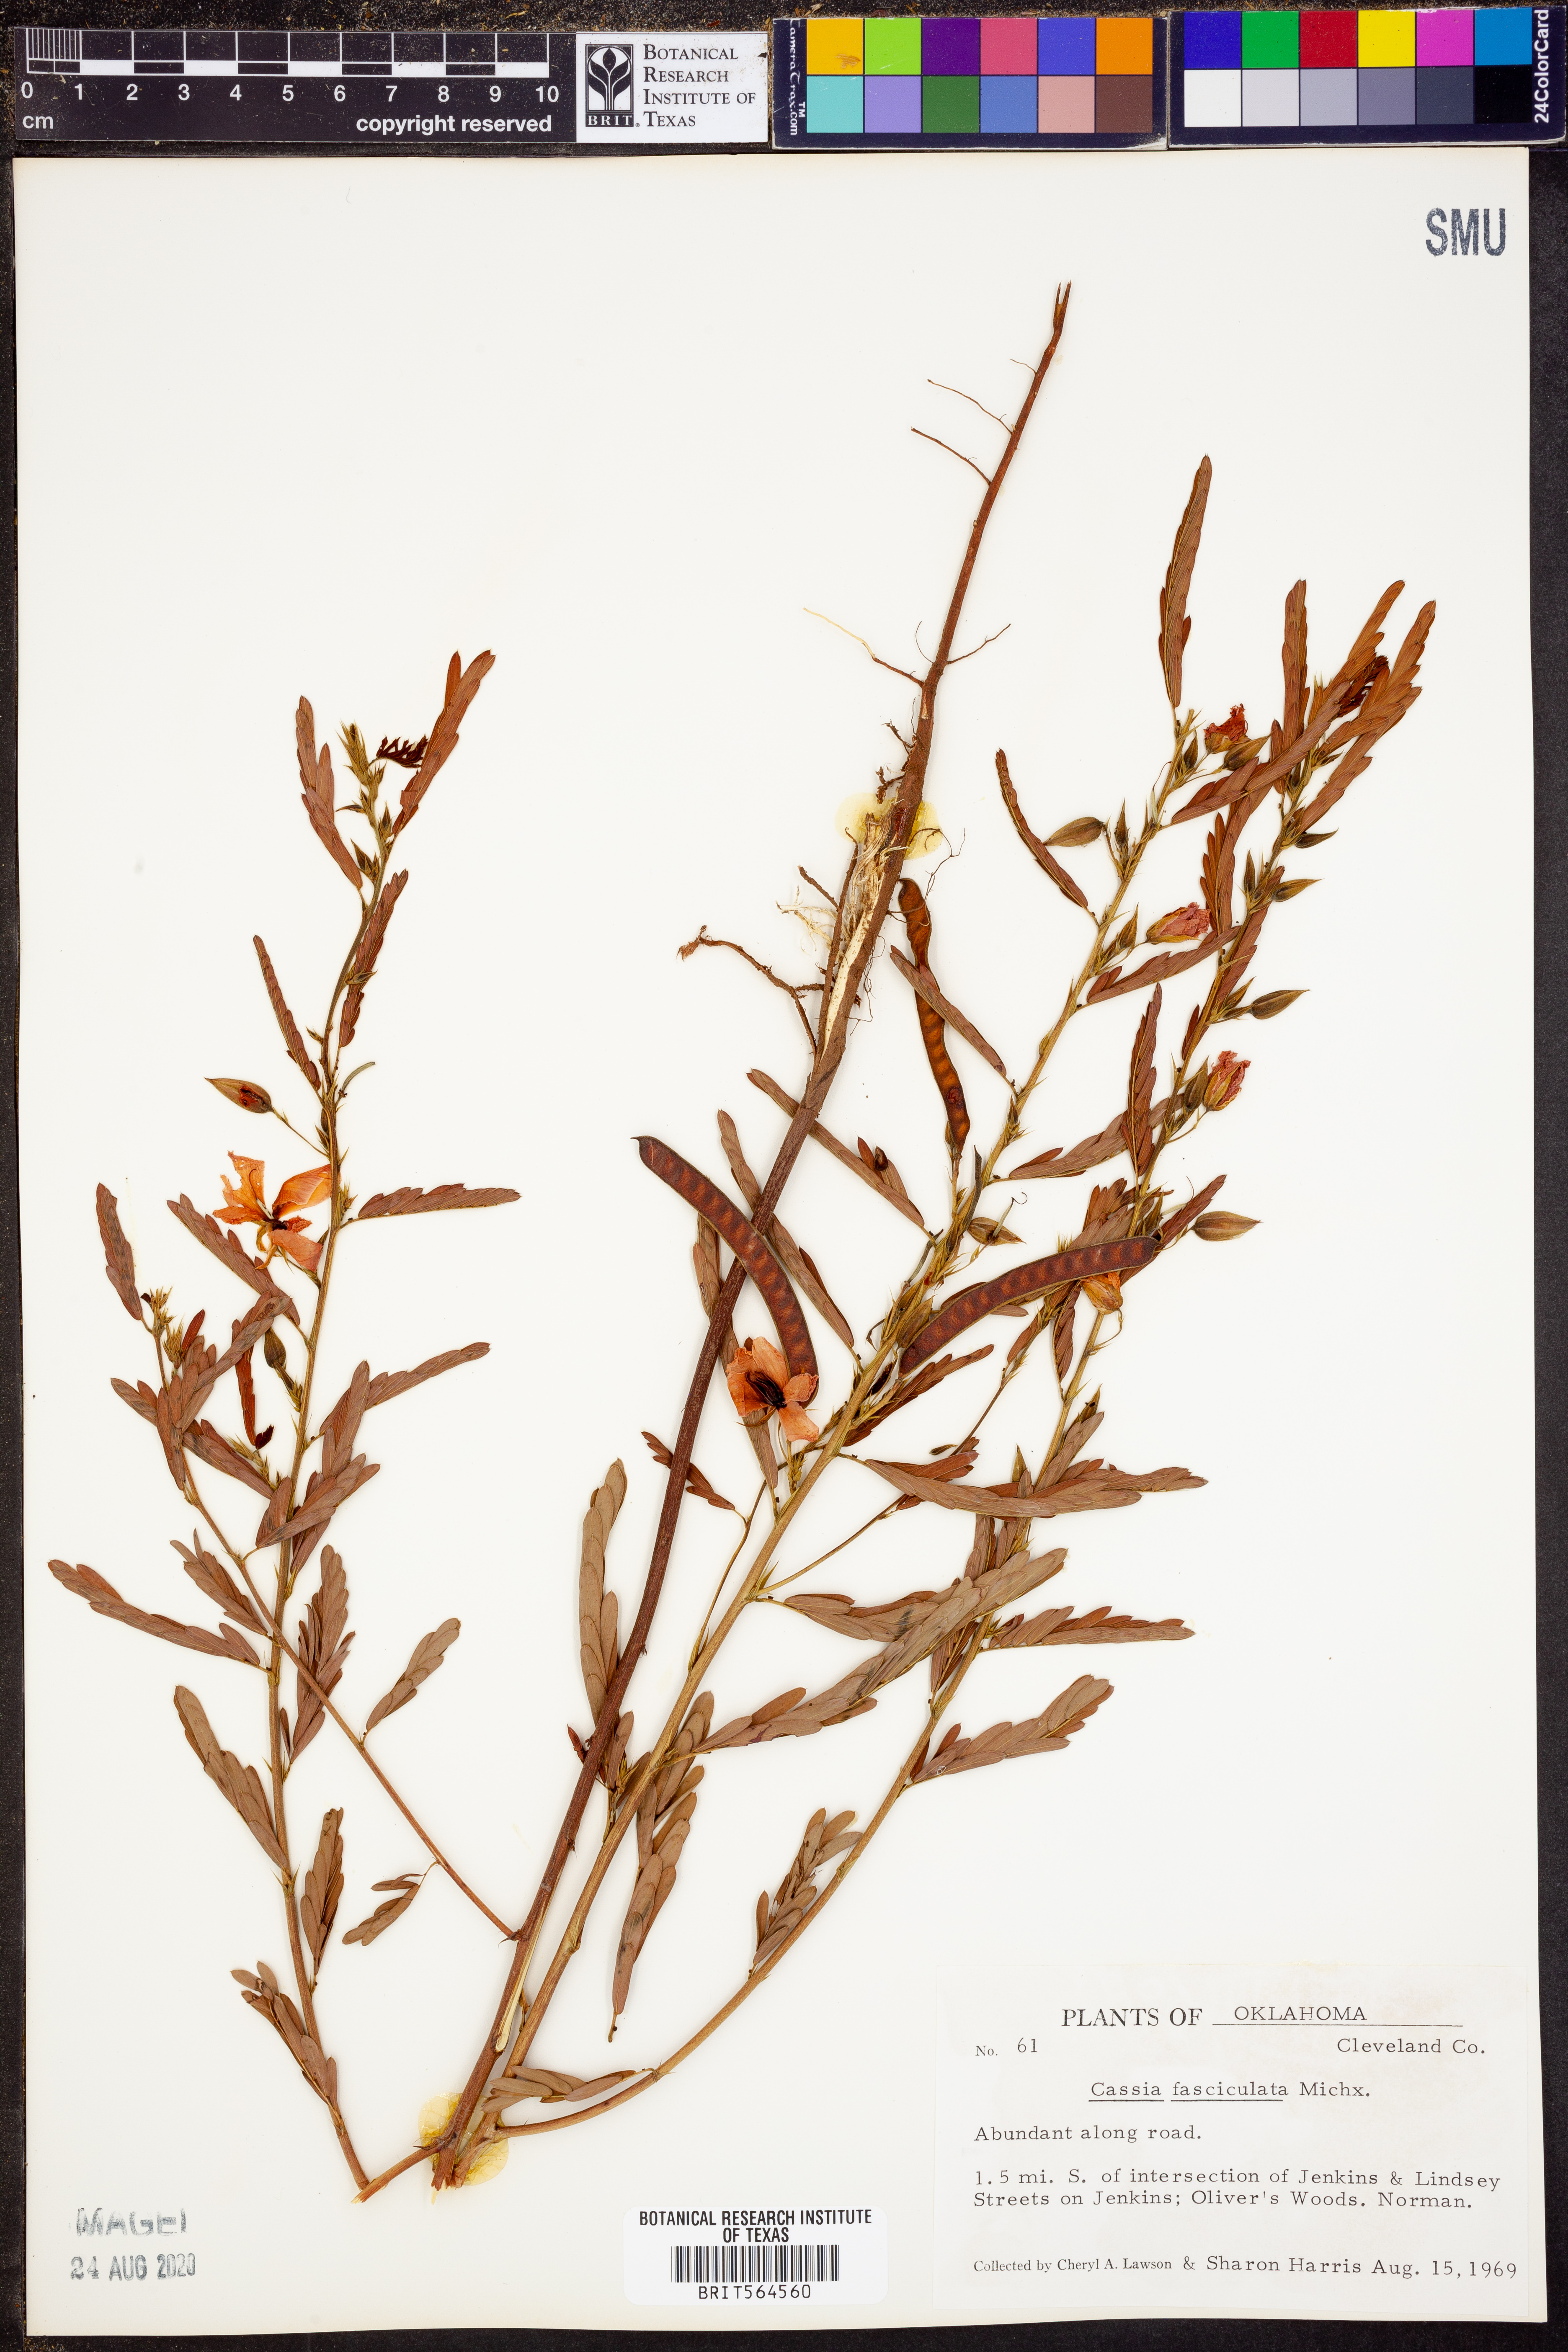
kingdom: Plantae
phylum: Tracheophyta
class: Magnoliopsida
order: Fabales
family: Fabaceae
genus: Chamaecrista
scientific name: Chamaecrista fasciculata
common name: Golden cassia
